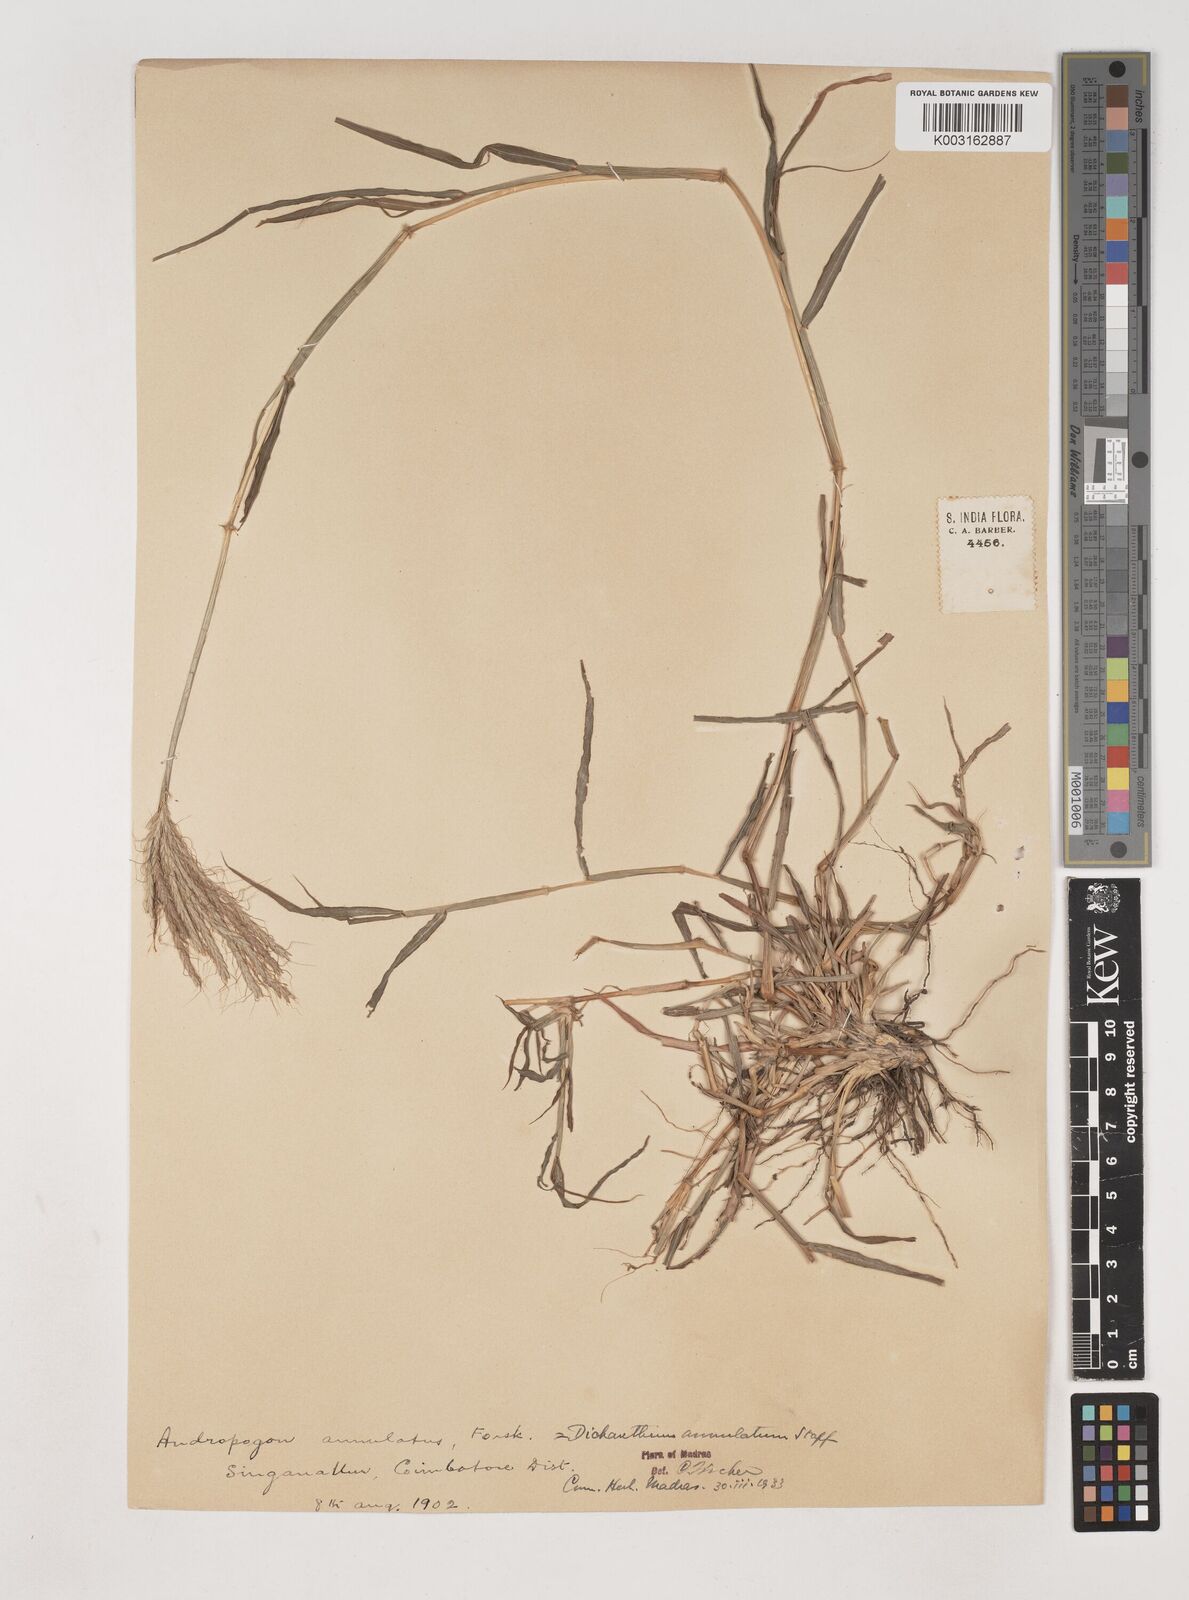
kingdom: Plantae
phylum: Tracheophyta
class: Liliopsida
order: Poales
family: Poaceae
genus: Dichanthium
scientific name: Dichanthium annulatum
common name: Kleberg's bluestem
